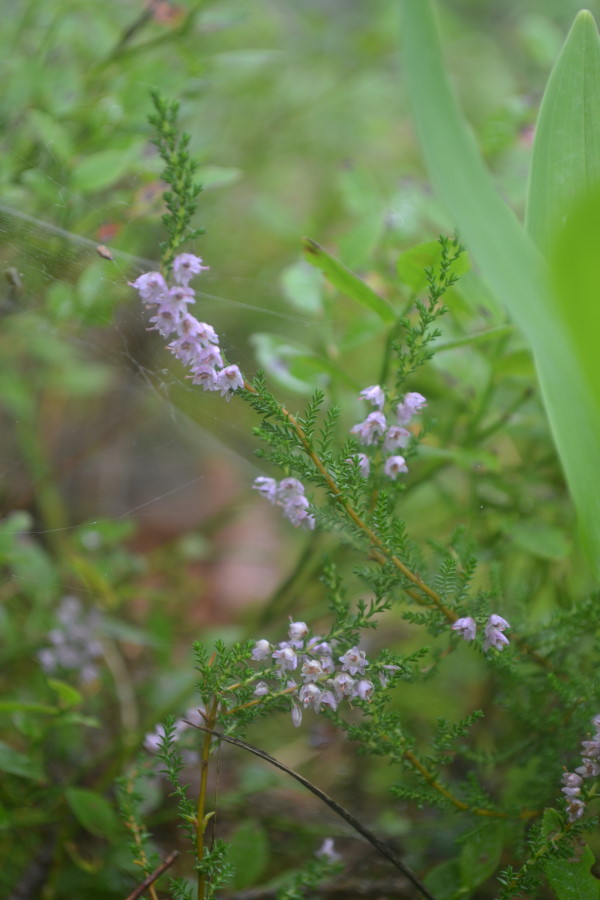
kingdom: Plantae
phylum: Tracheophyta
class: Magnoliopsida
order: Ericales
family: Ericaceae
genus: Calluna
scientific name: Calluna vulgaris
